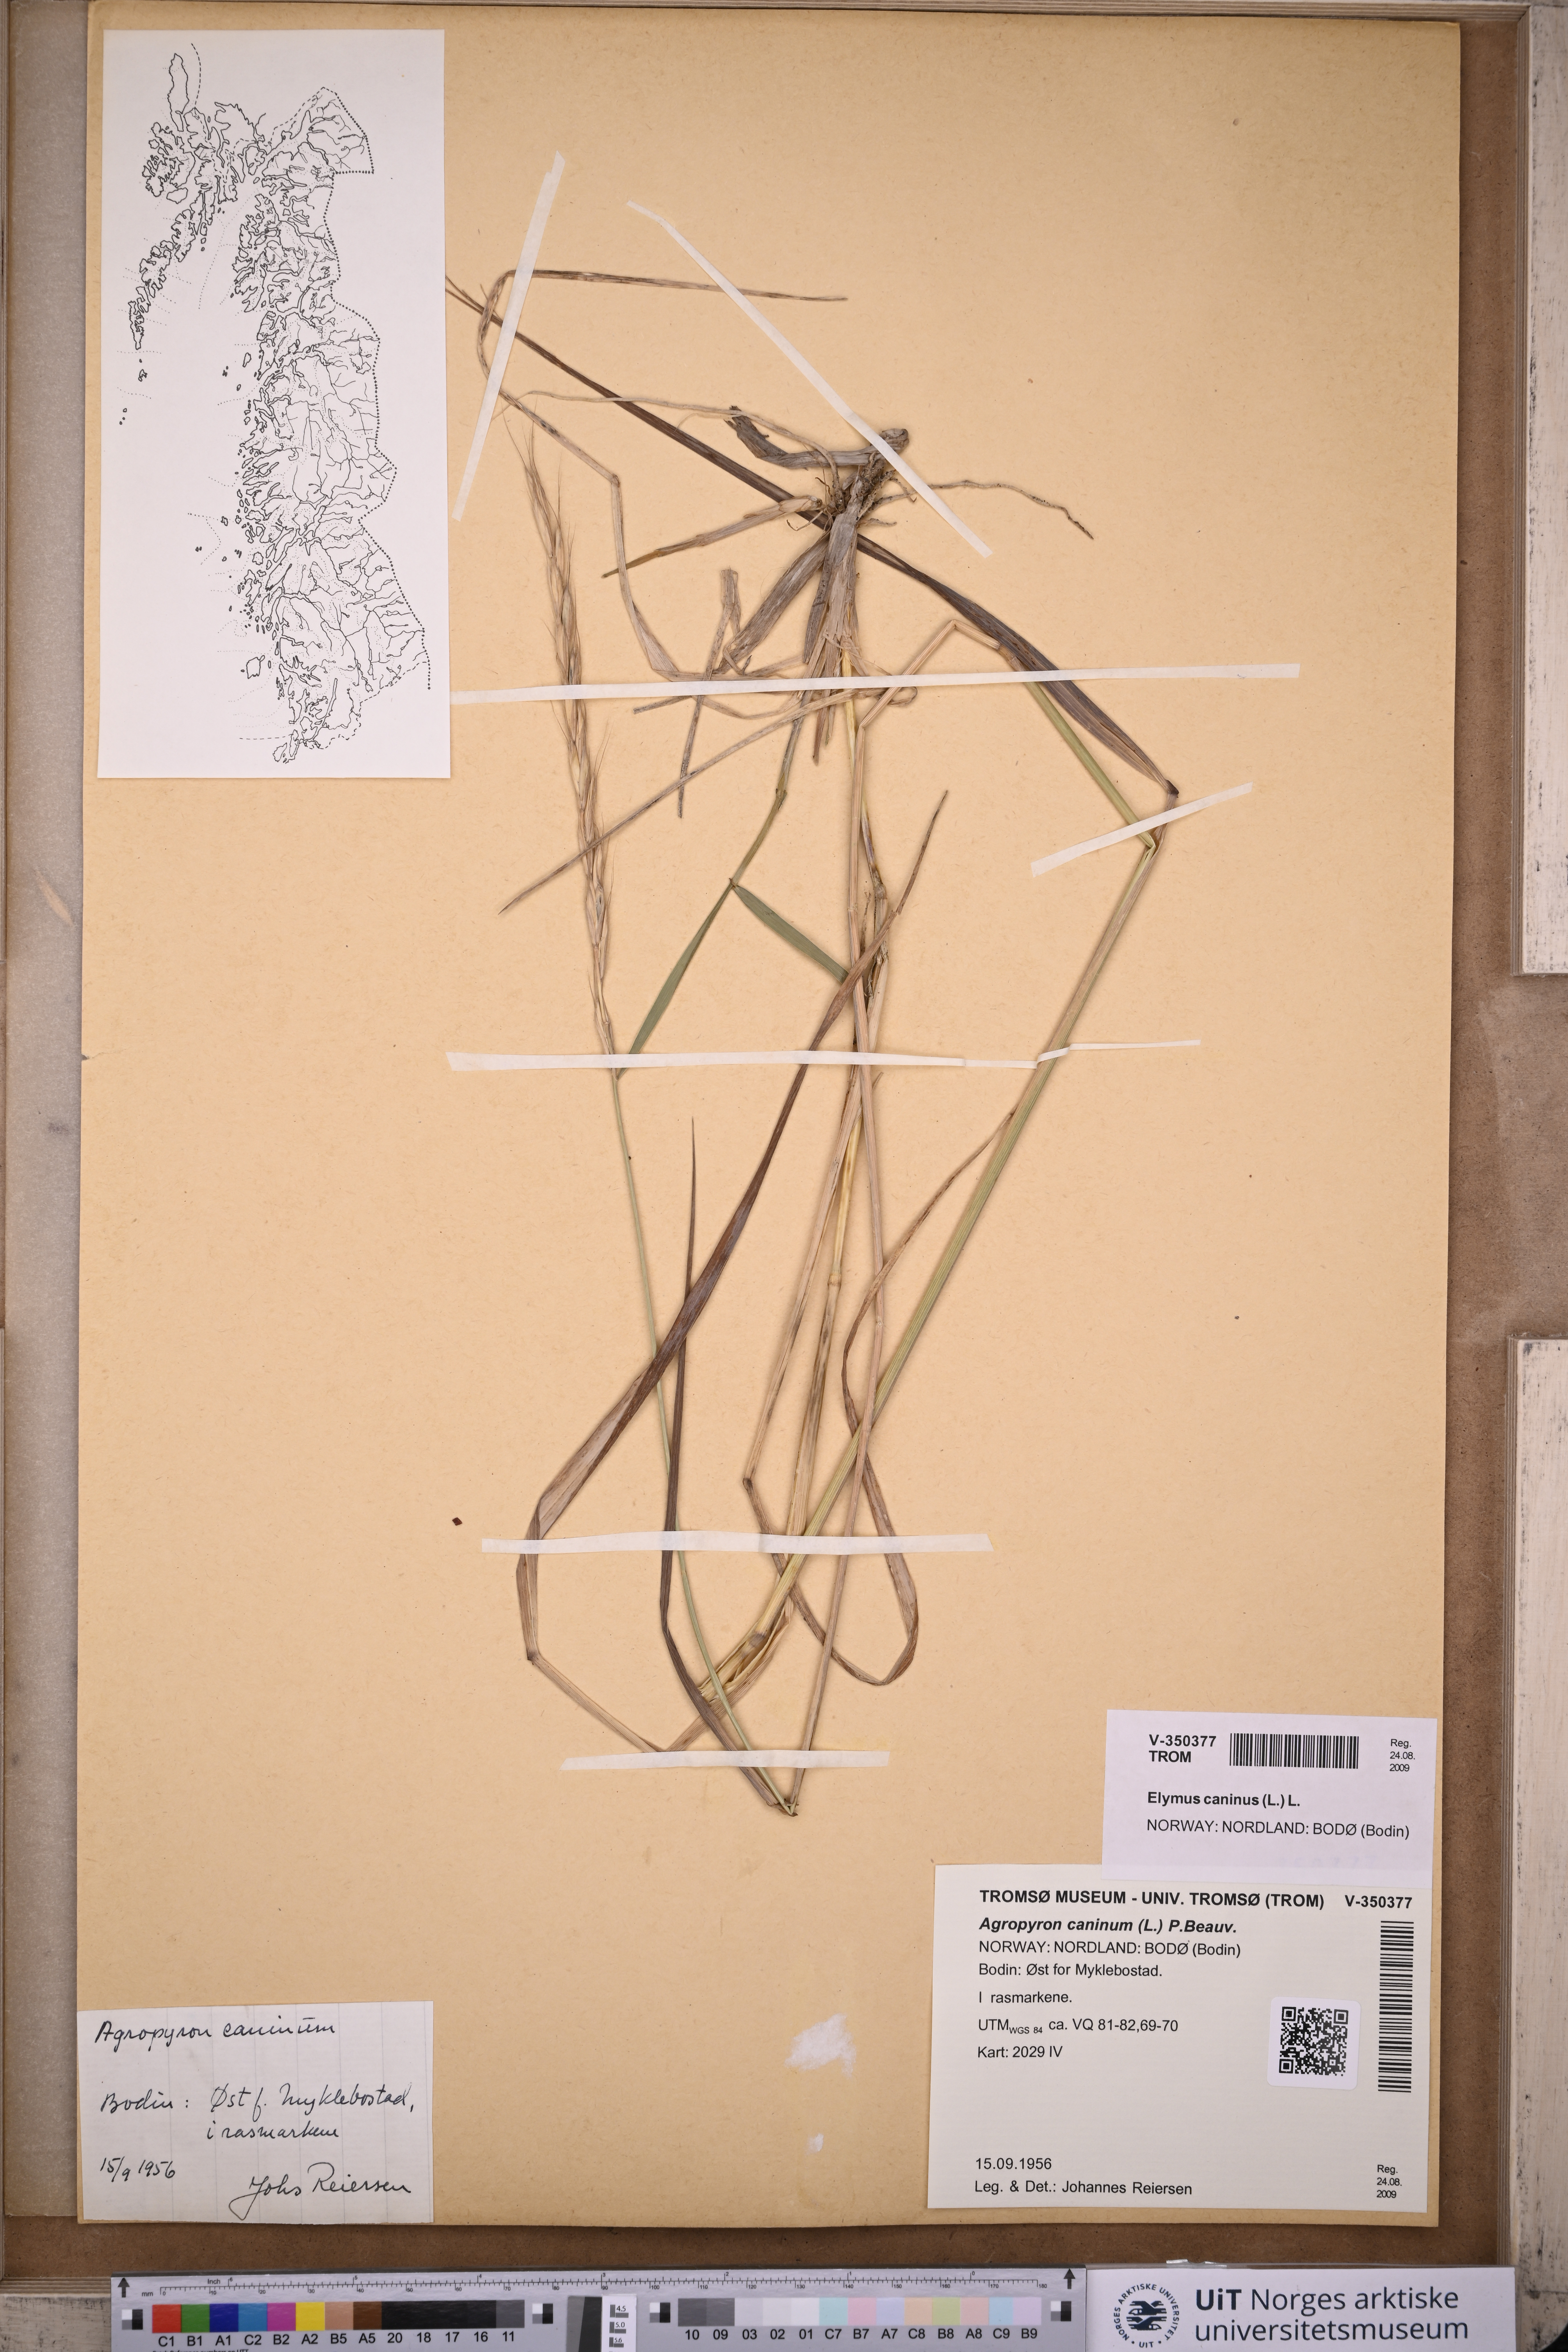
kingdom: Plantae
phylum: Tracheophyta
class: Liliopsida
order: Poales
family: Poaceae
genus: Elymus
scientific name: Elymus caninus
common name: Bearded couch
